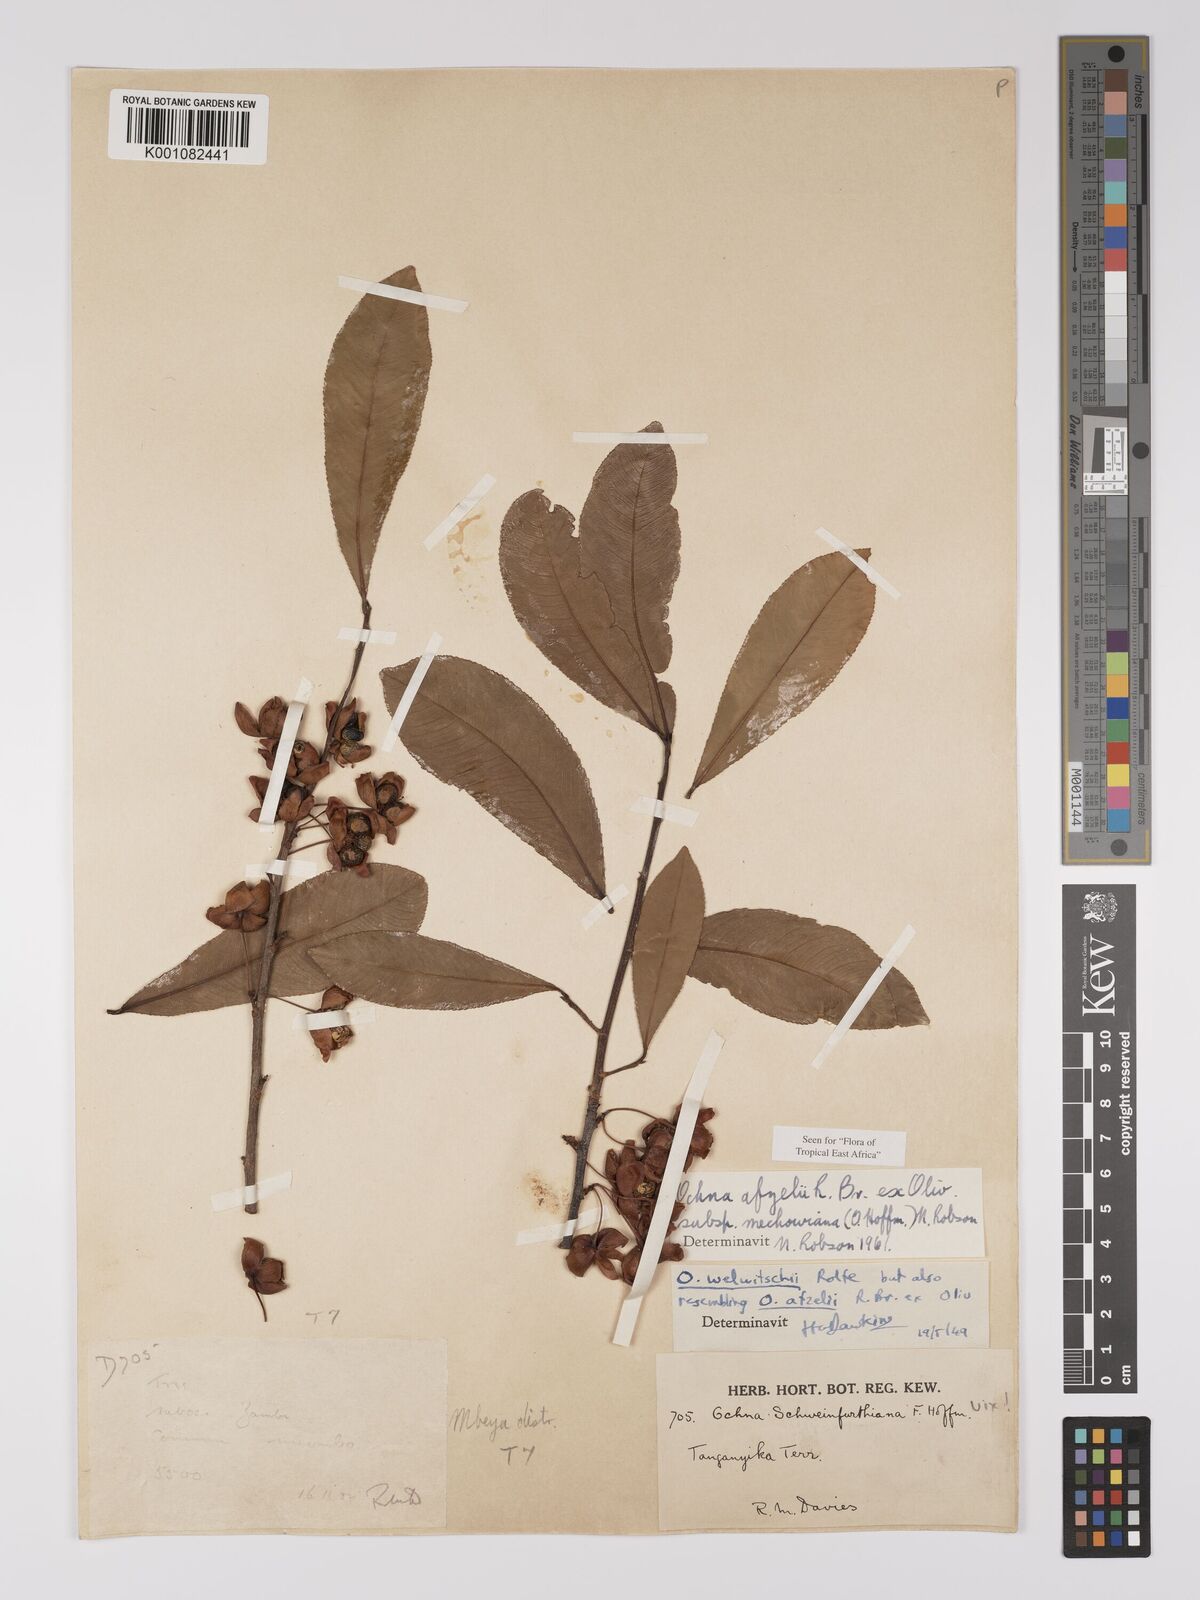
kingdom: Plantae
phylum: Tracheophyta
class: Magnoliopsida
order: Malpighiales
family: Ochnaceae
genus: Ochna
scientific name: Ochna afzelii
